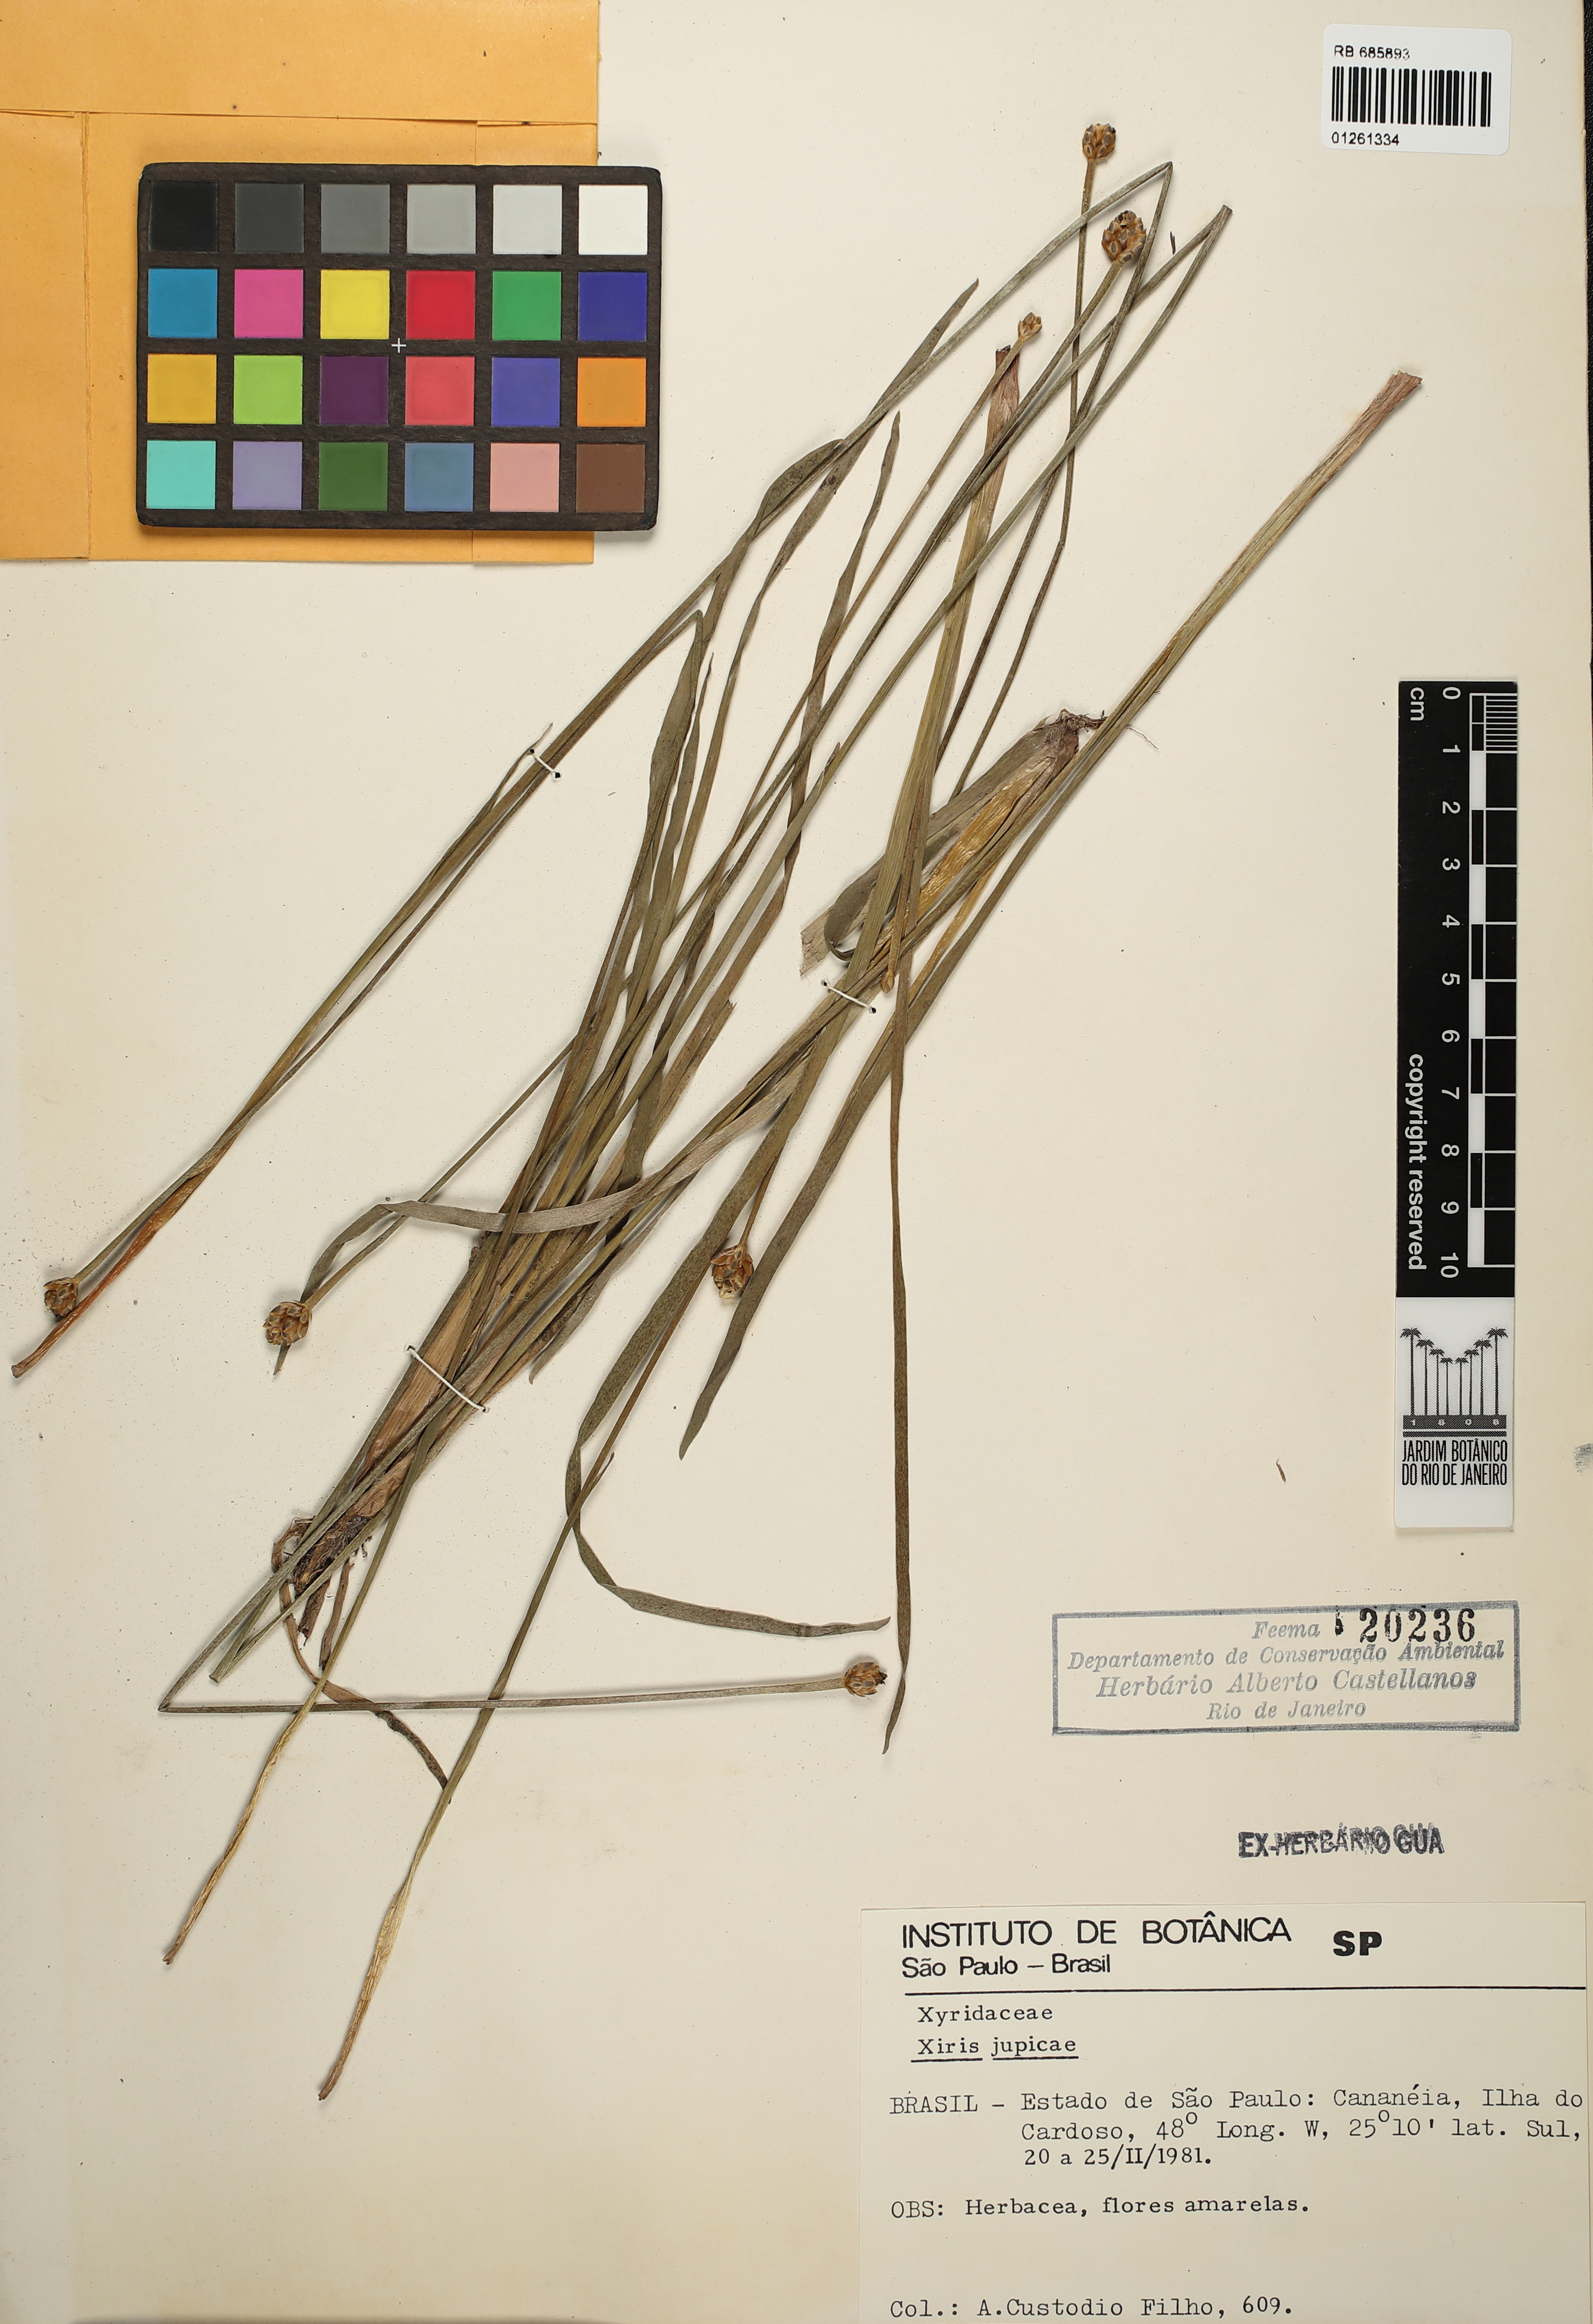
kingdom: Plantae
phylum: Tracheophyta
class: Liliopsida
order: Poales
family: Xyridaceae
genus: Xyris
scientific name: Xyris jupicai
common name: Richard's yelloweyed grass
